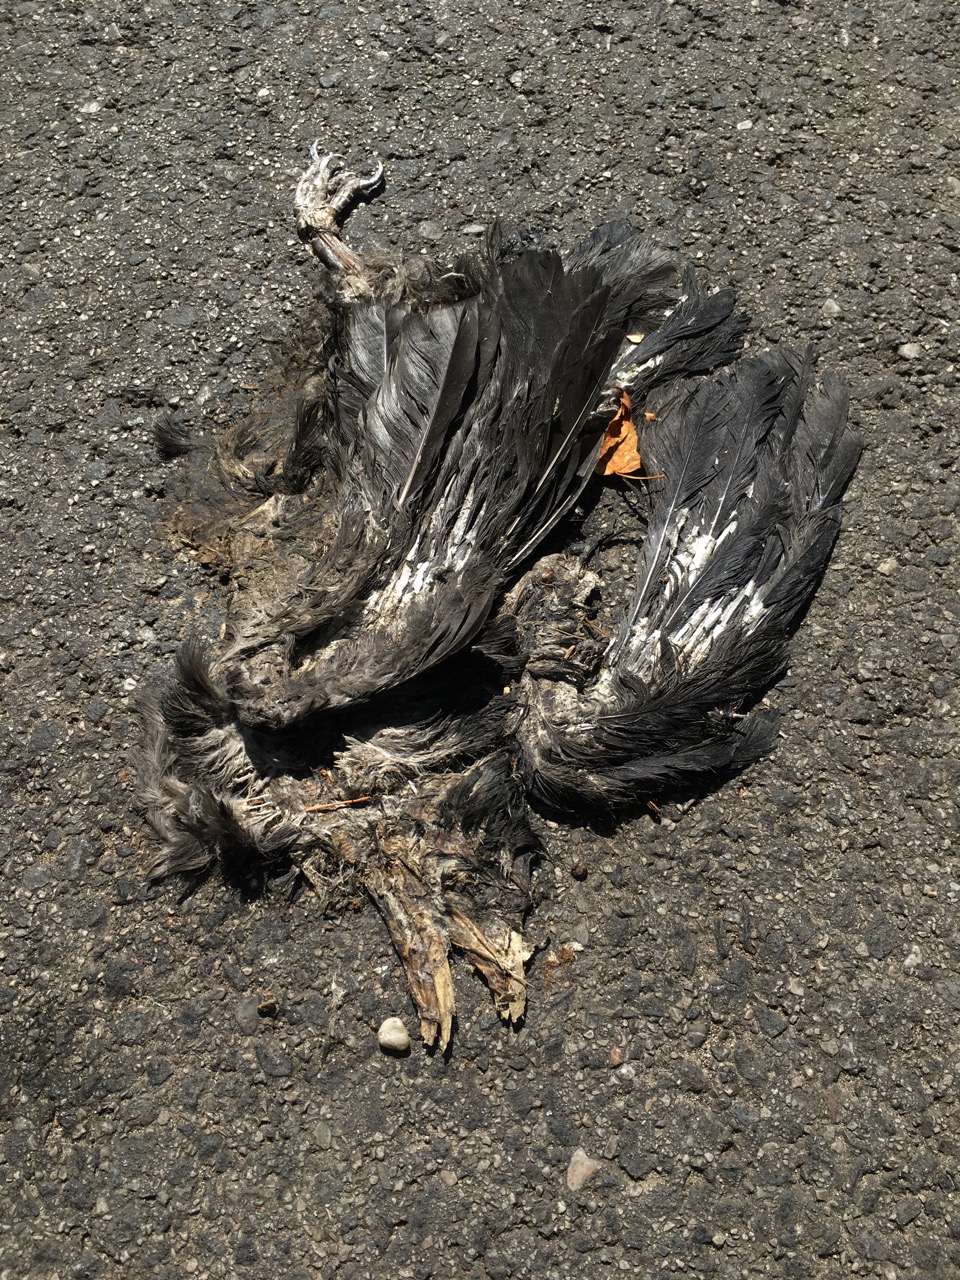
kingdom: Animalia
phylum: Chordata
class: Aves
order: Passeriformes
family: Corvidae
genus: Corvus
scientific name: Corvus
